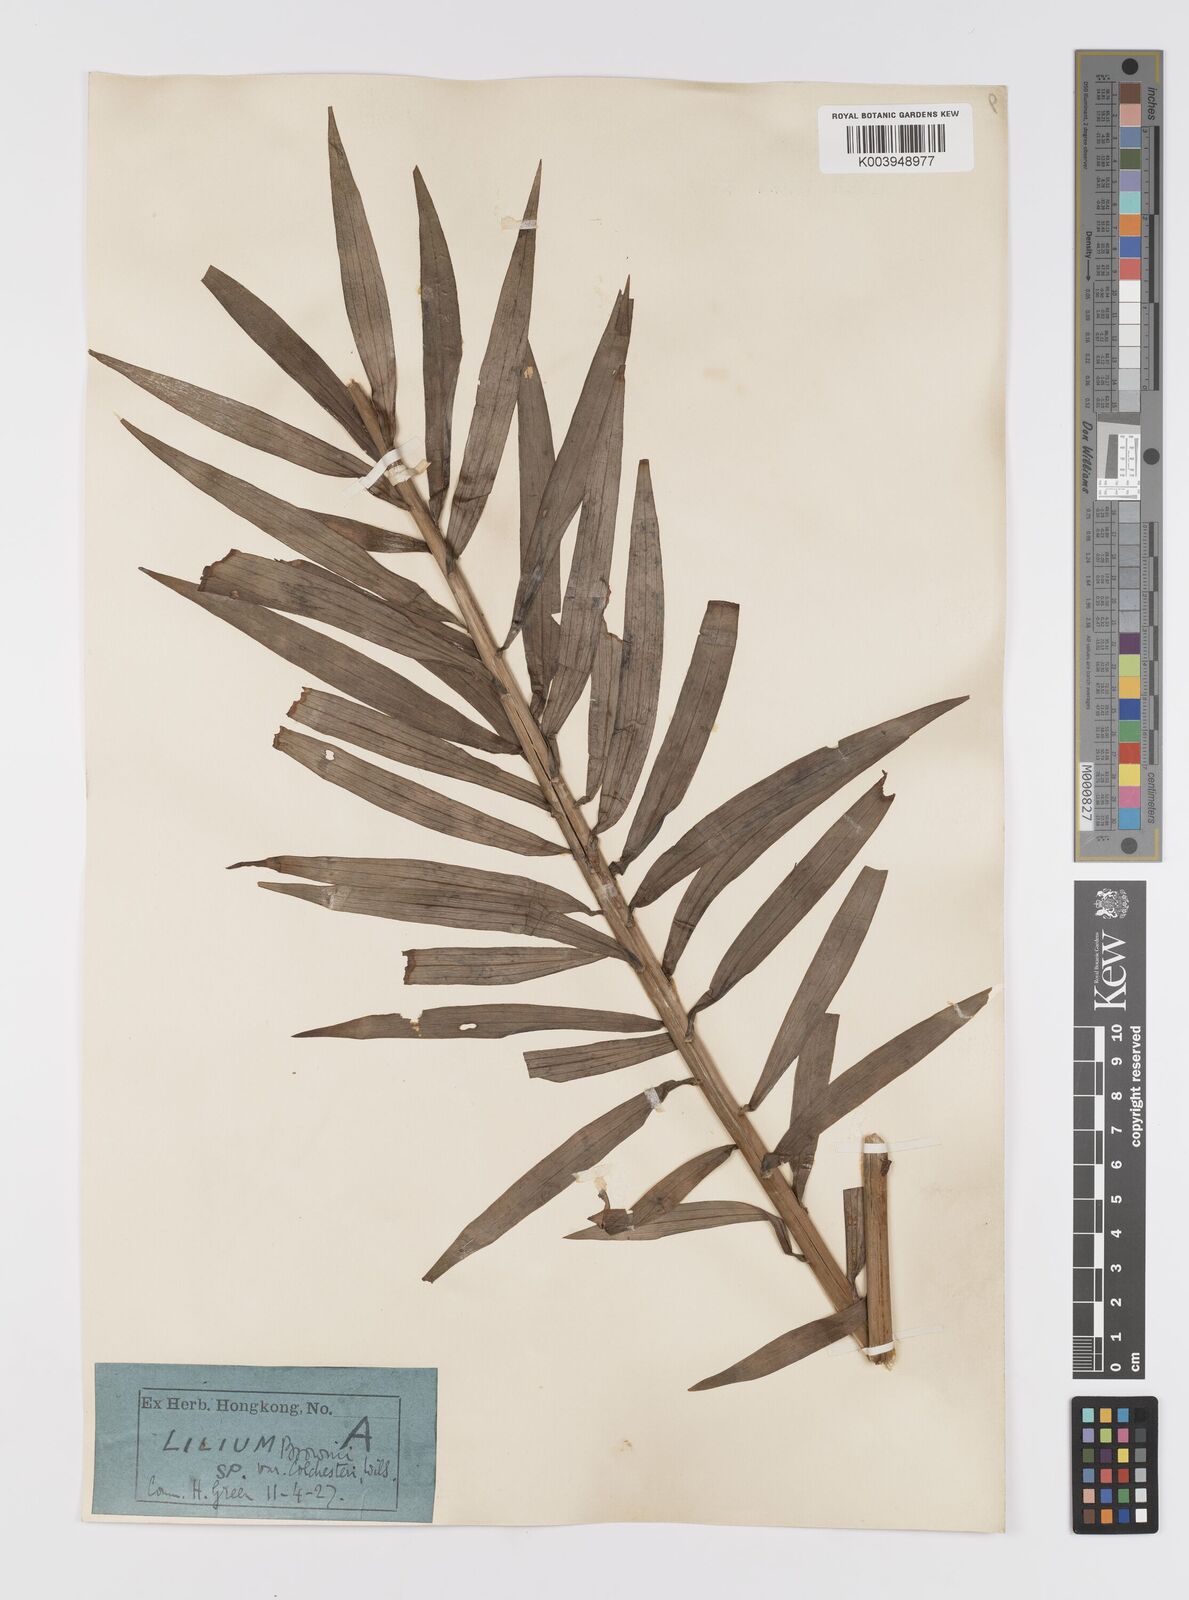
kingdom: Plantae
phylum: Tracheophyta
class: Liliopsida
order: Liliales
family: Liliaceae
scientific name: Liliaceae
